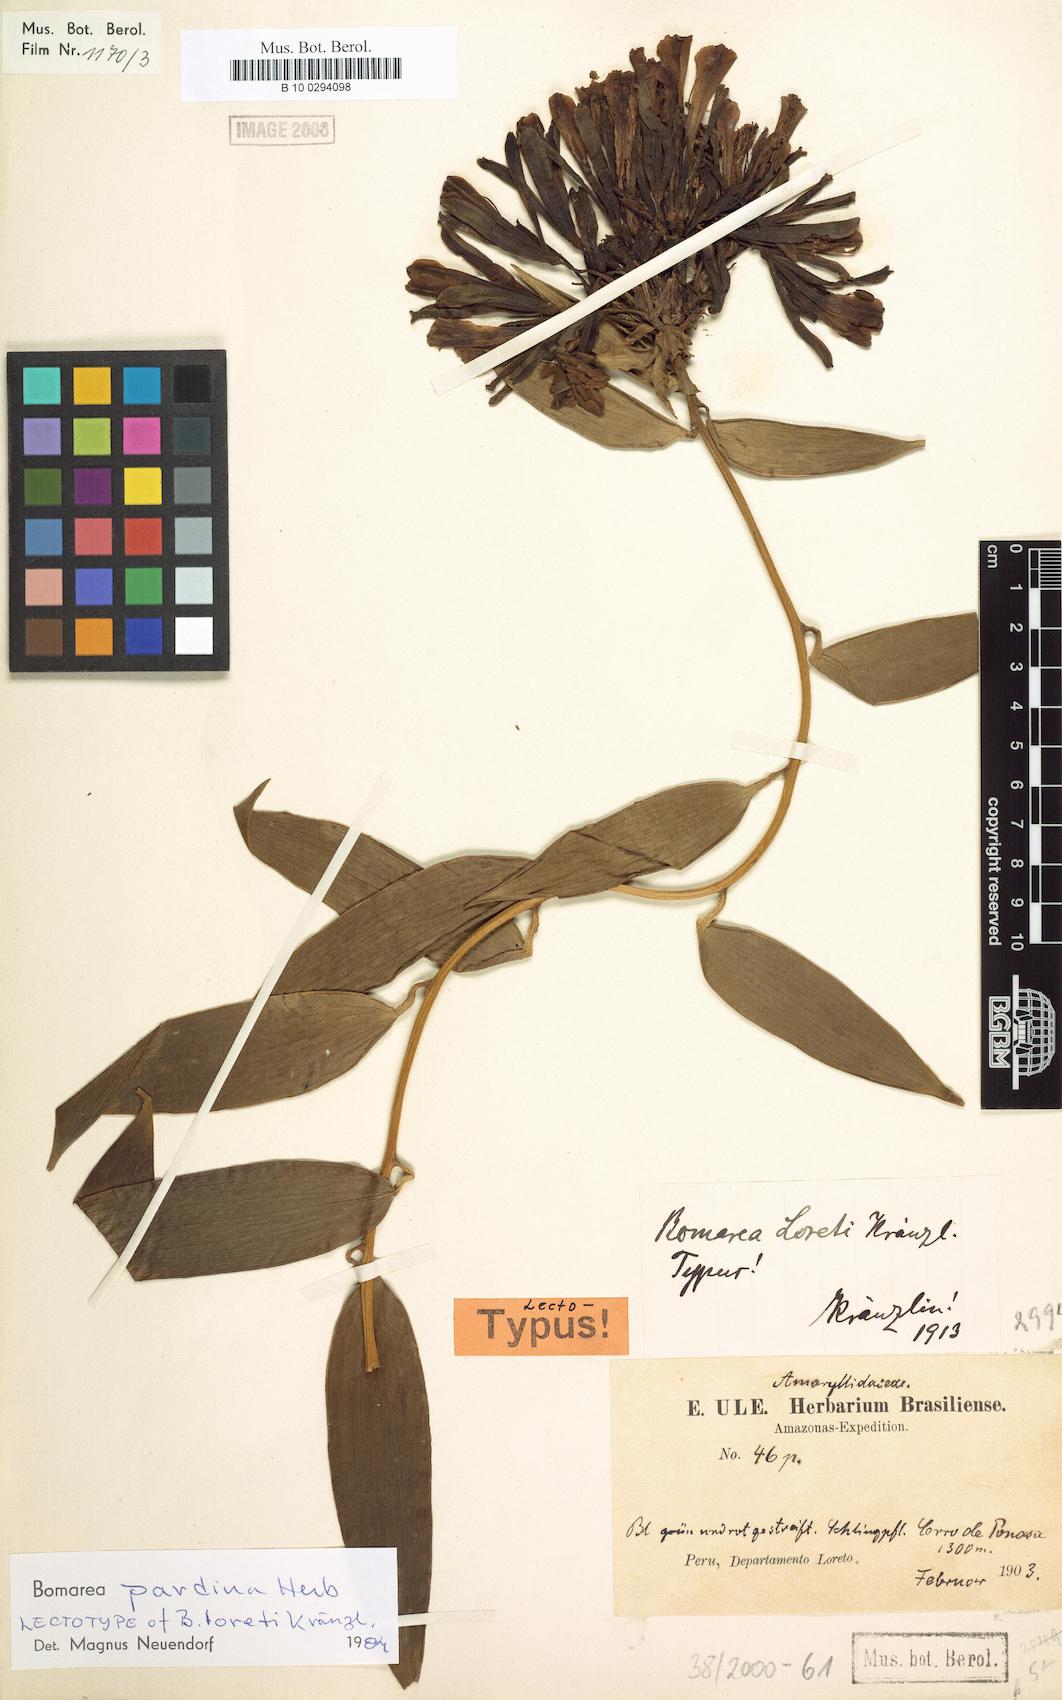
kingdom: Plantae
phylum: Tracheophyta
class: Liliopsida
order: Liliales
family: Alstroemeriaceae
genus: Bomarea
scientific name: Bomarea pardina
